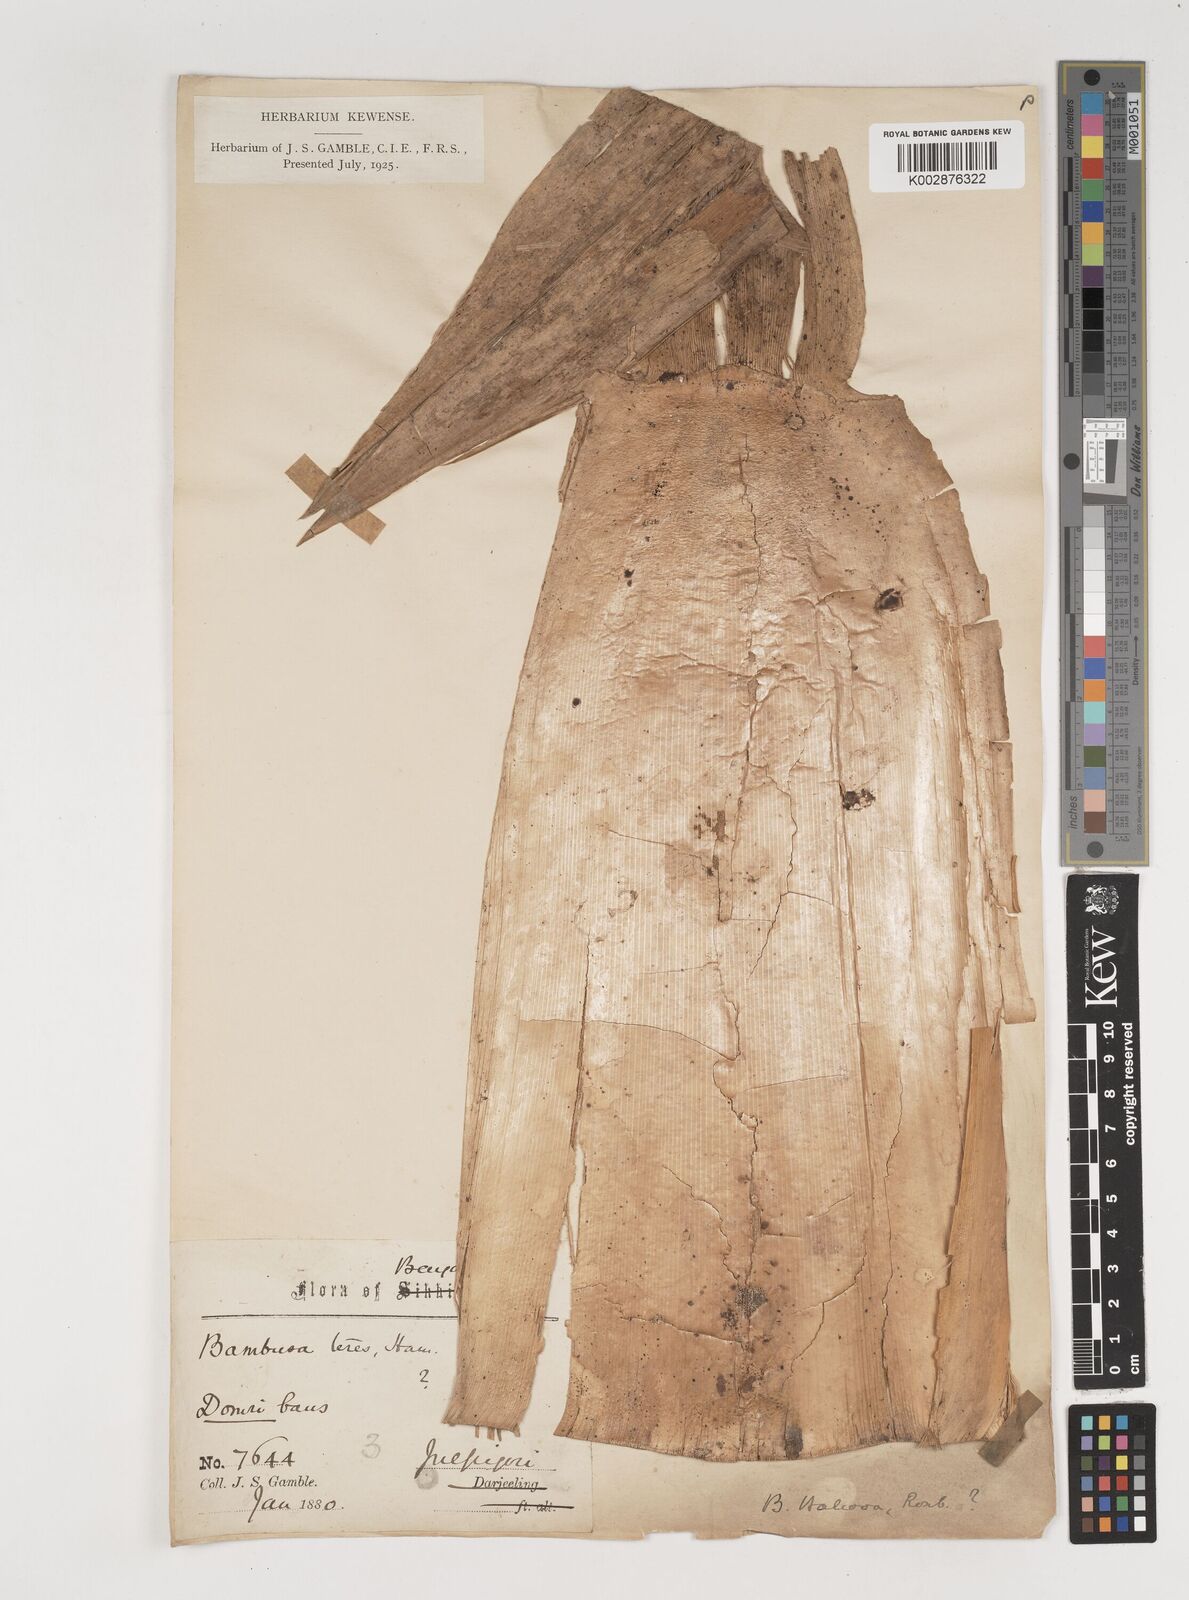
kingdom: Plantae
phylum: Tracheophyta
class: Liliopsida
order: Poales
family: Poaceae
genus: Bambusa
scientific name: Bambusa balcooa
